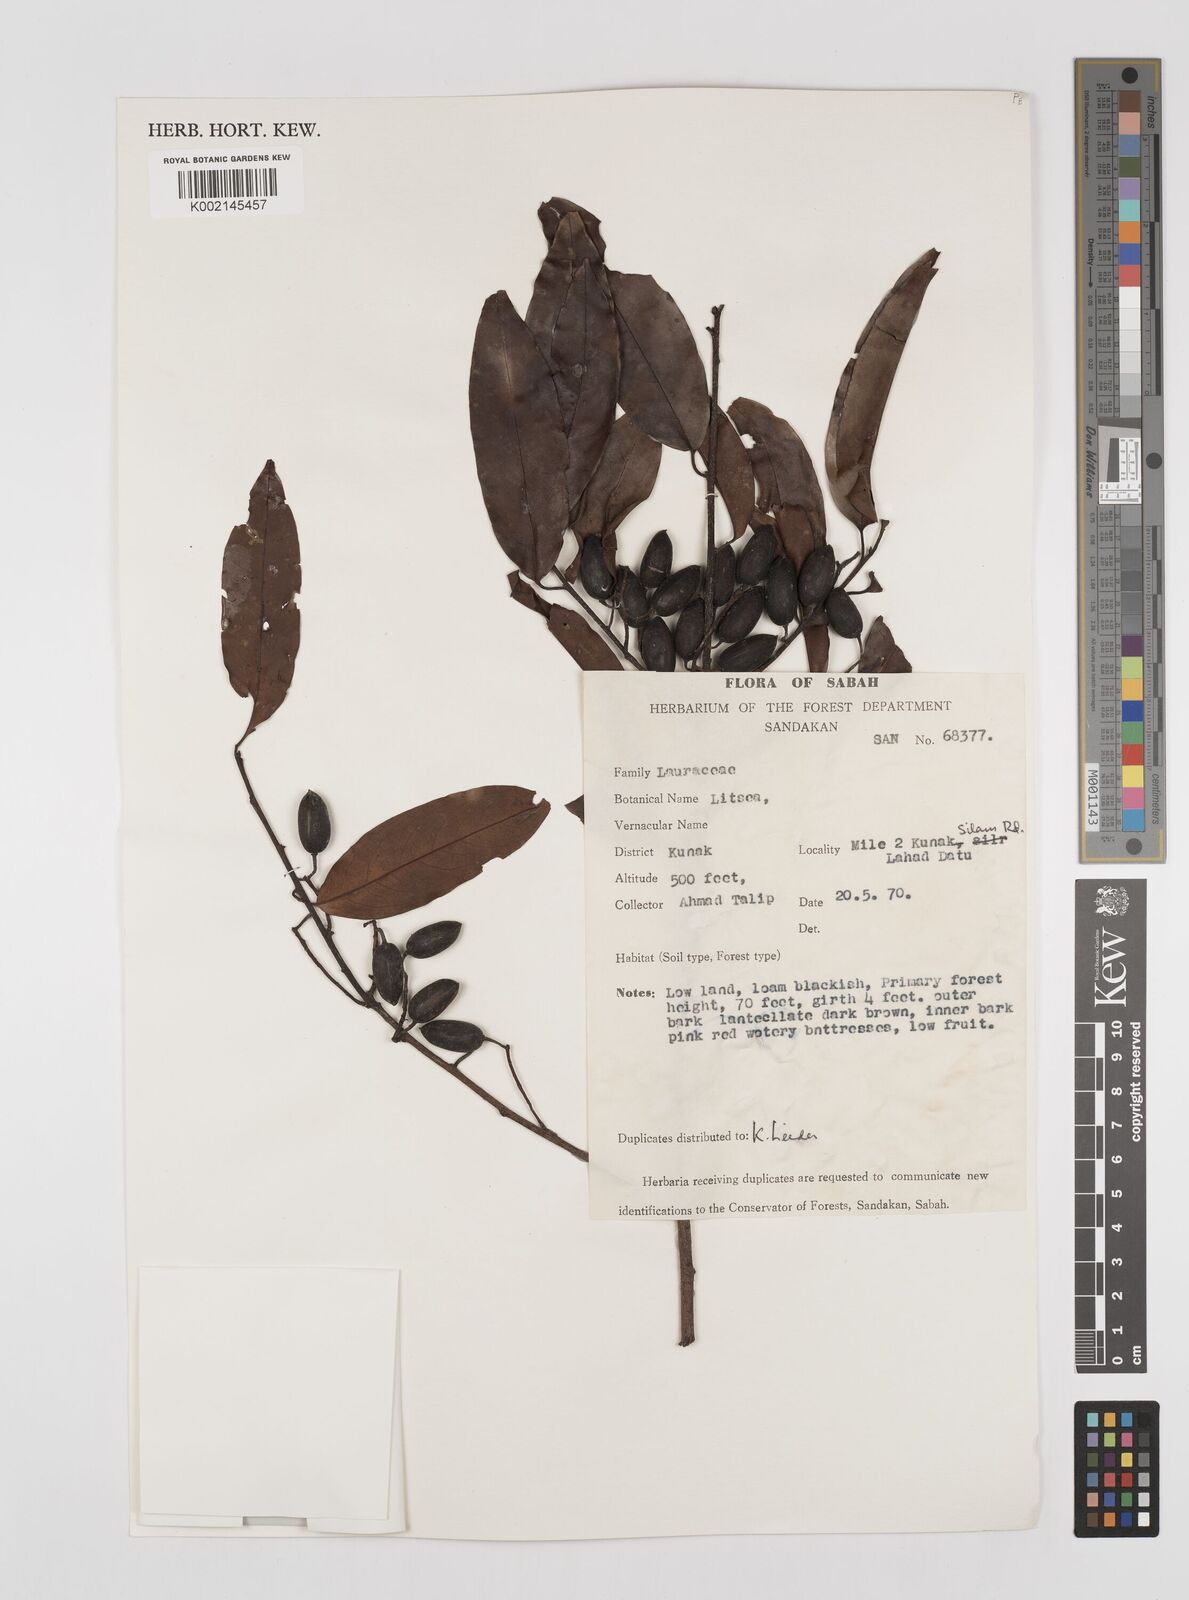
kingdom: Plantae
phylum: Tracheophyta
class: Magnoliopsida
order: Laurales
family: Lauraceae
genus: Litsea
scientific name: Litsea
